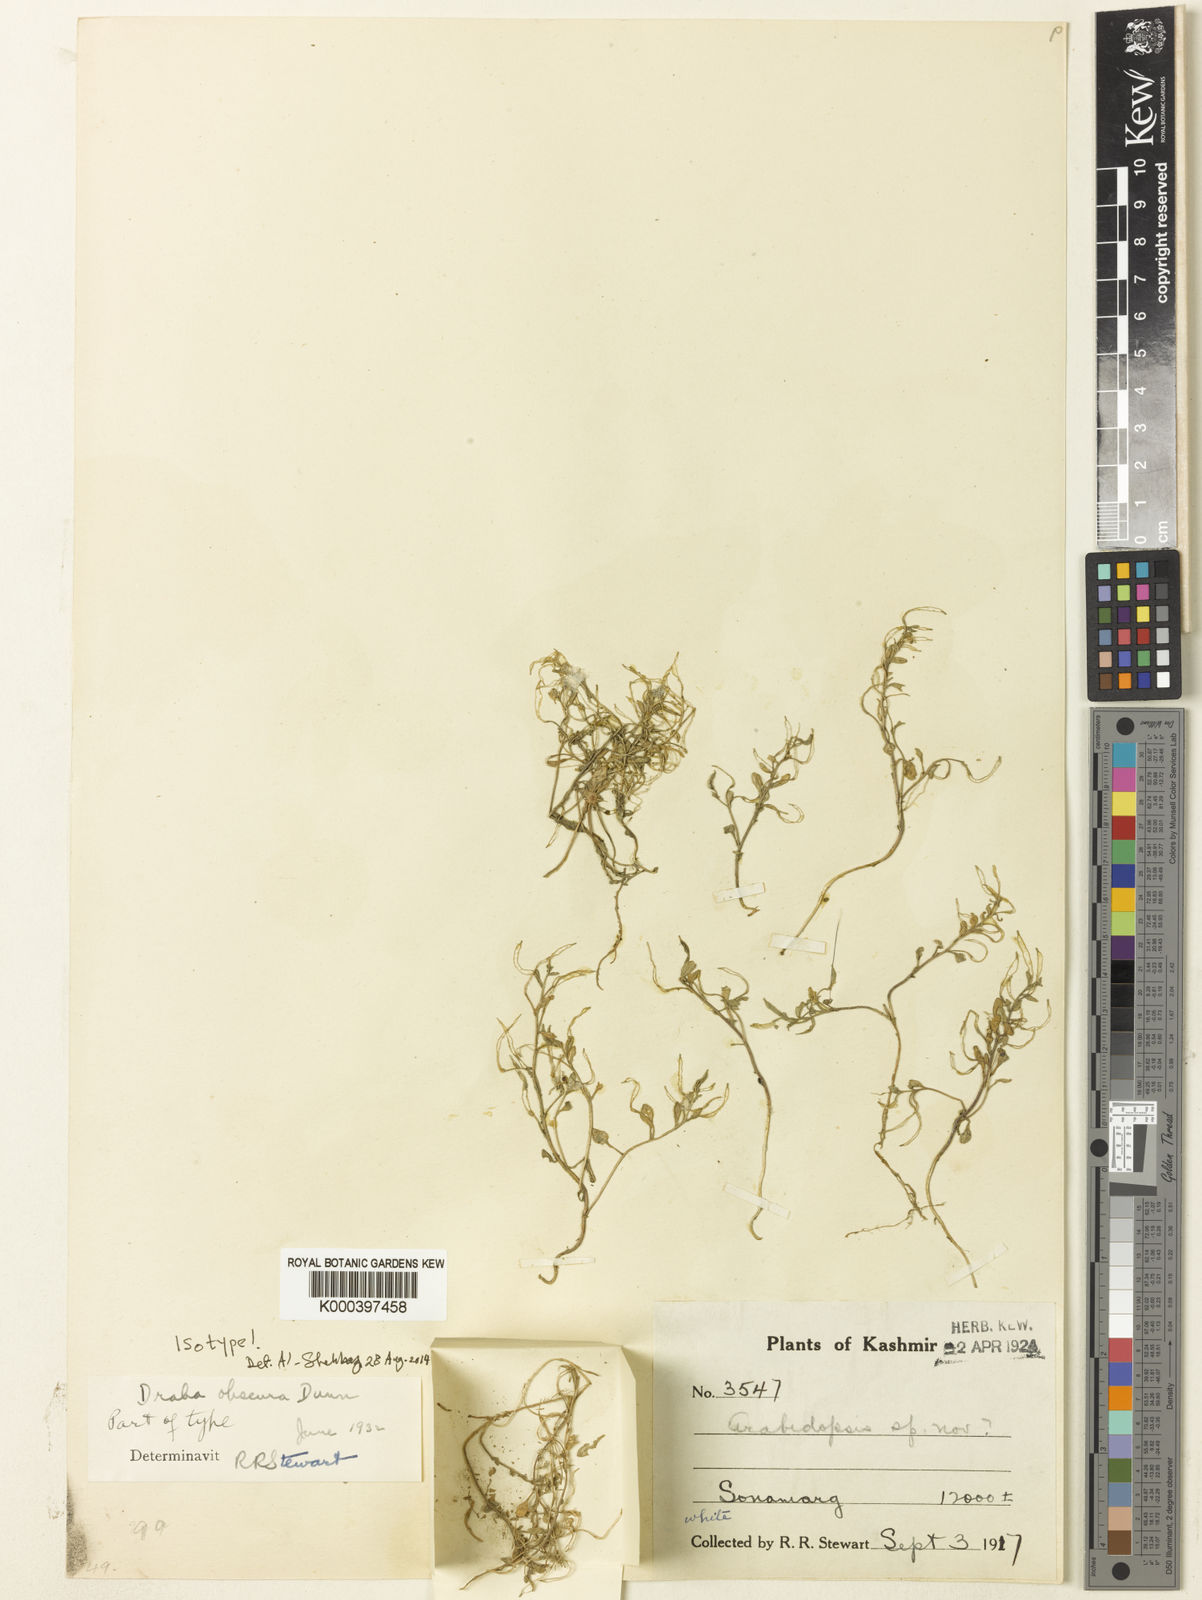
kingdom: Plantae
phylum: Tracheophyta
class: Magnoliopsida
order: Brassicales
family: Brassicaceae
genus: Aphragmus
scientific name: Aphragmus obscurus
